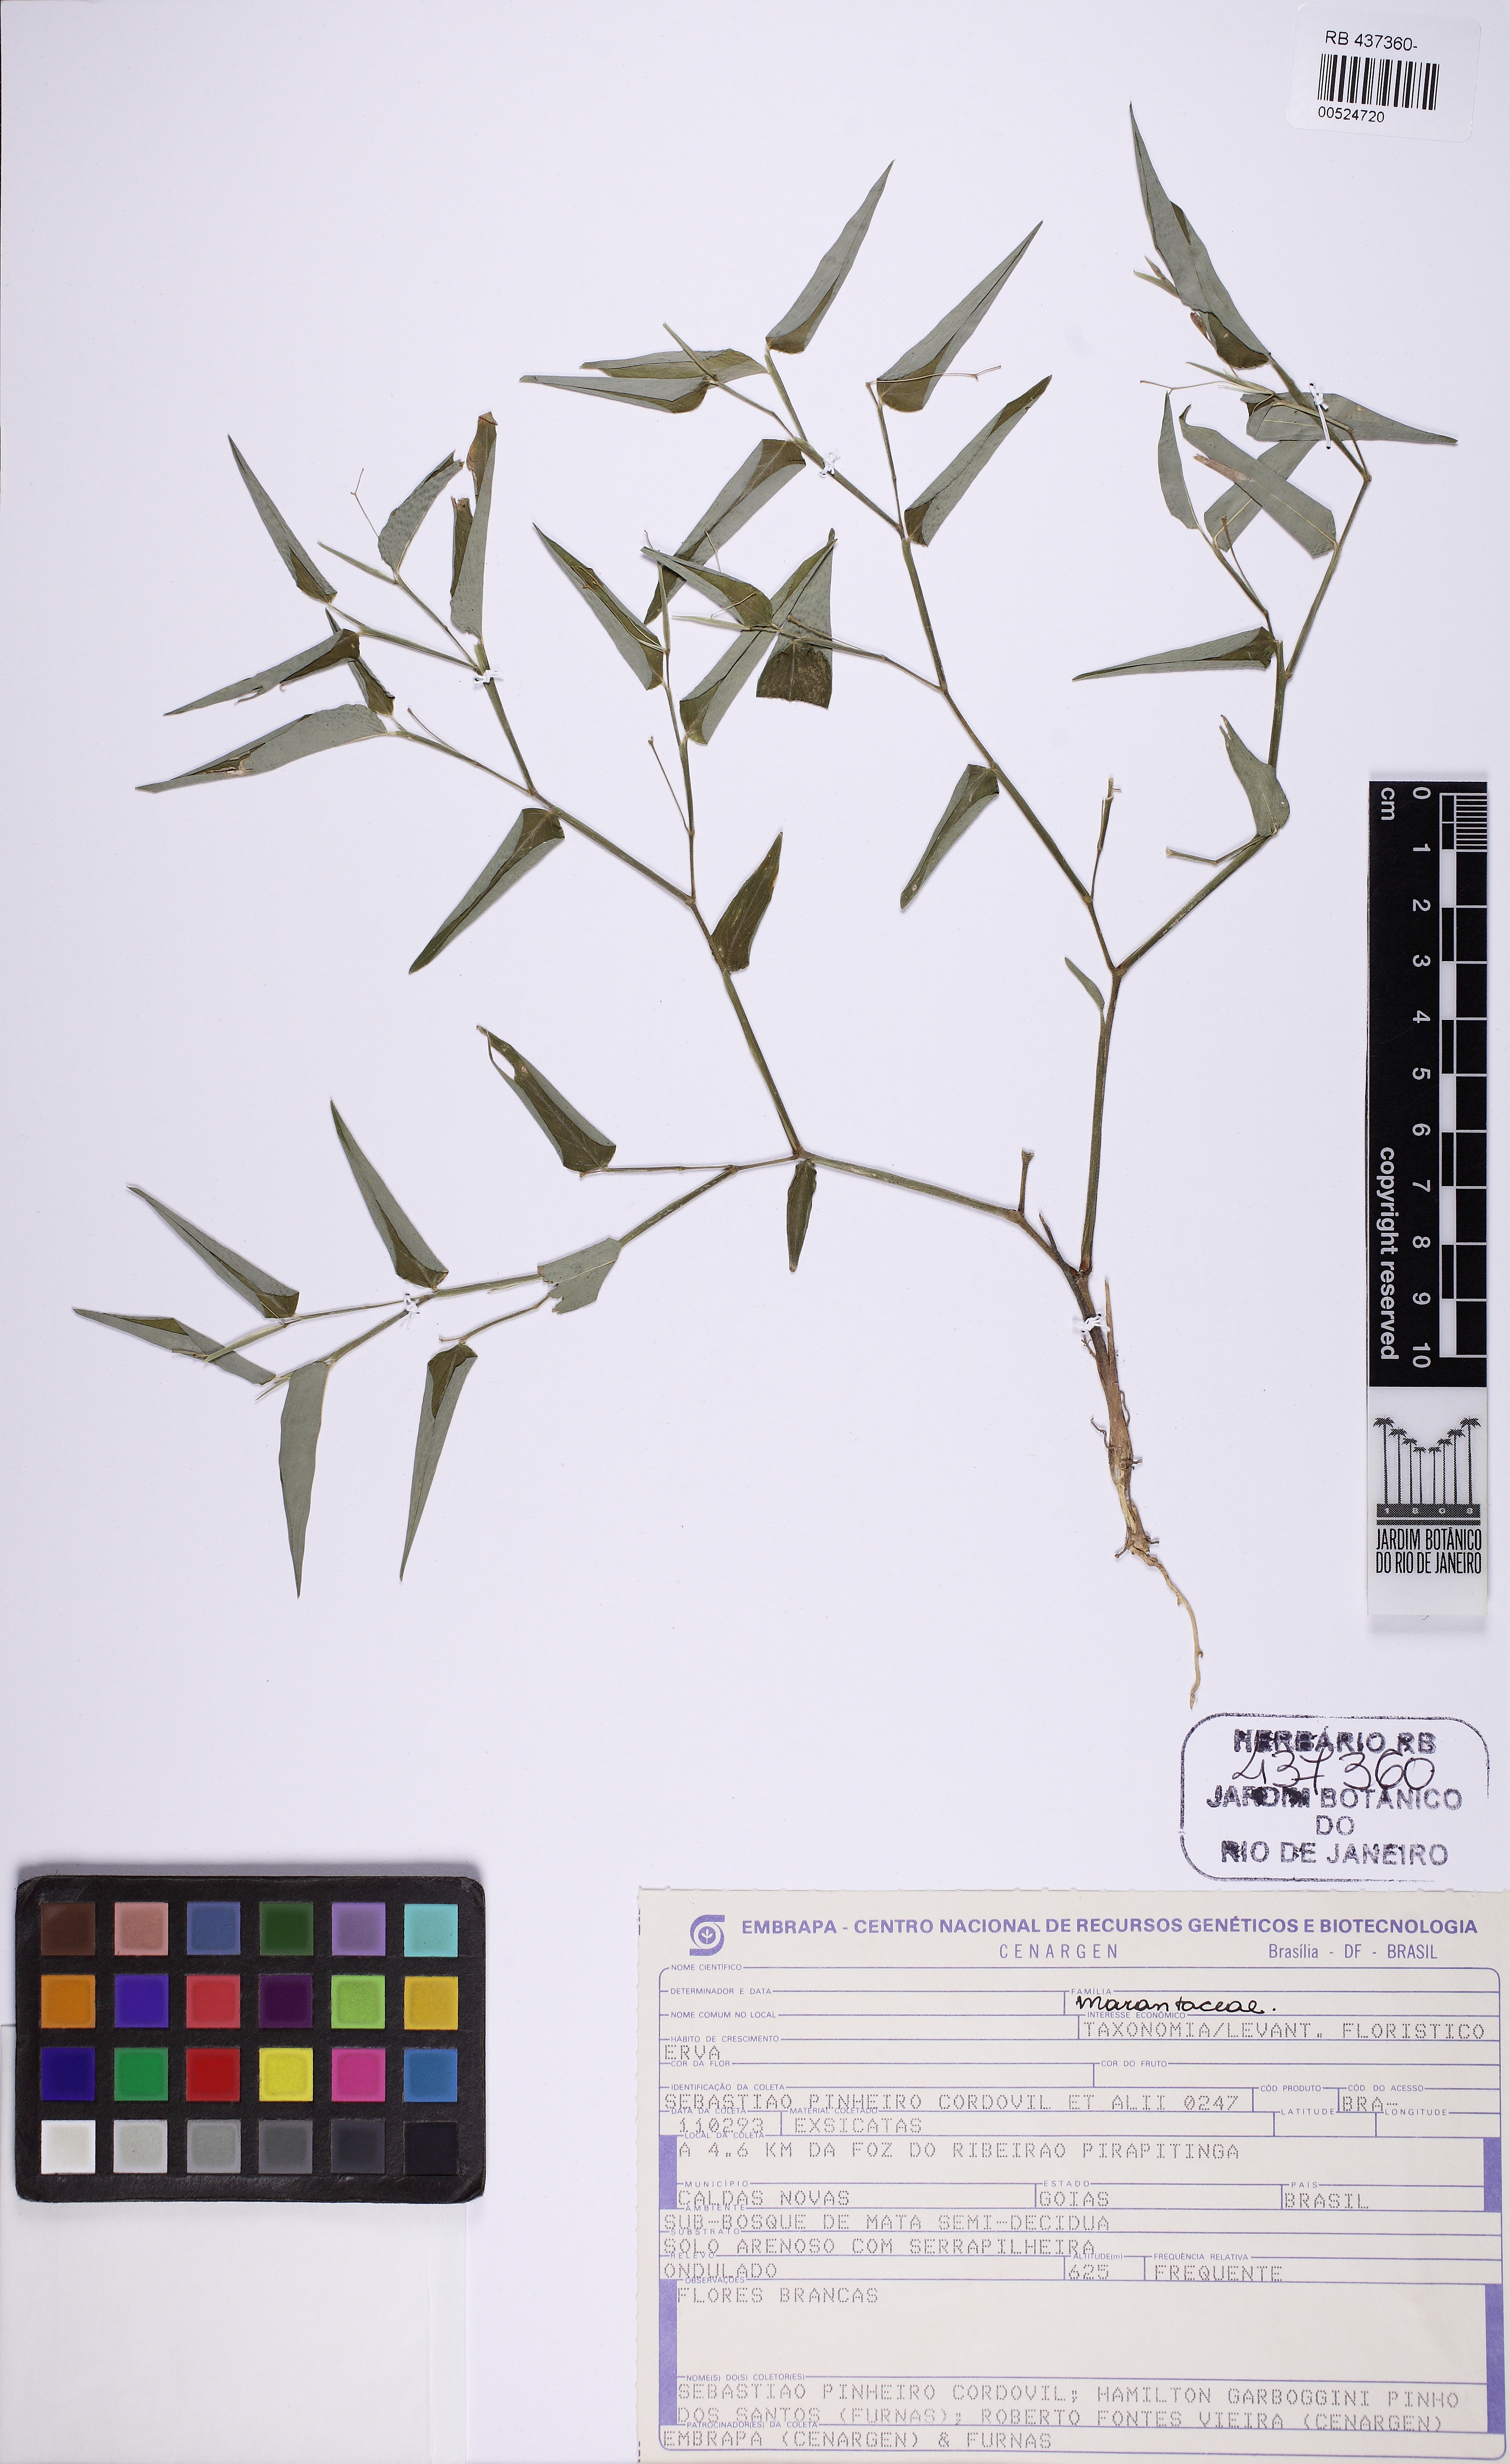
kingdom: Plantae
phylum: Tracheophyta
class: Liliopsida
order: Zingiberales
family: Marantaceae
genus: Maranta
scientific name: Maranta ruiziana
